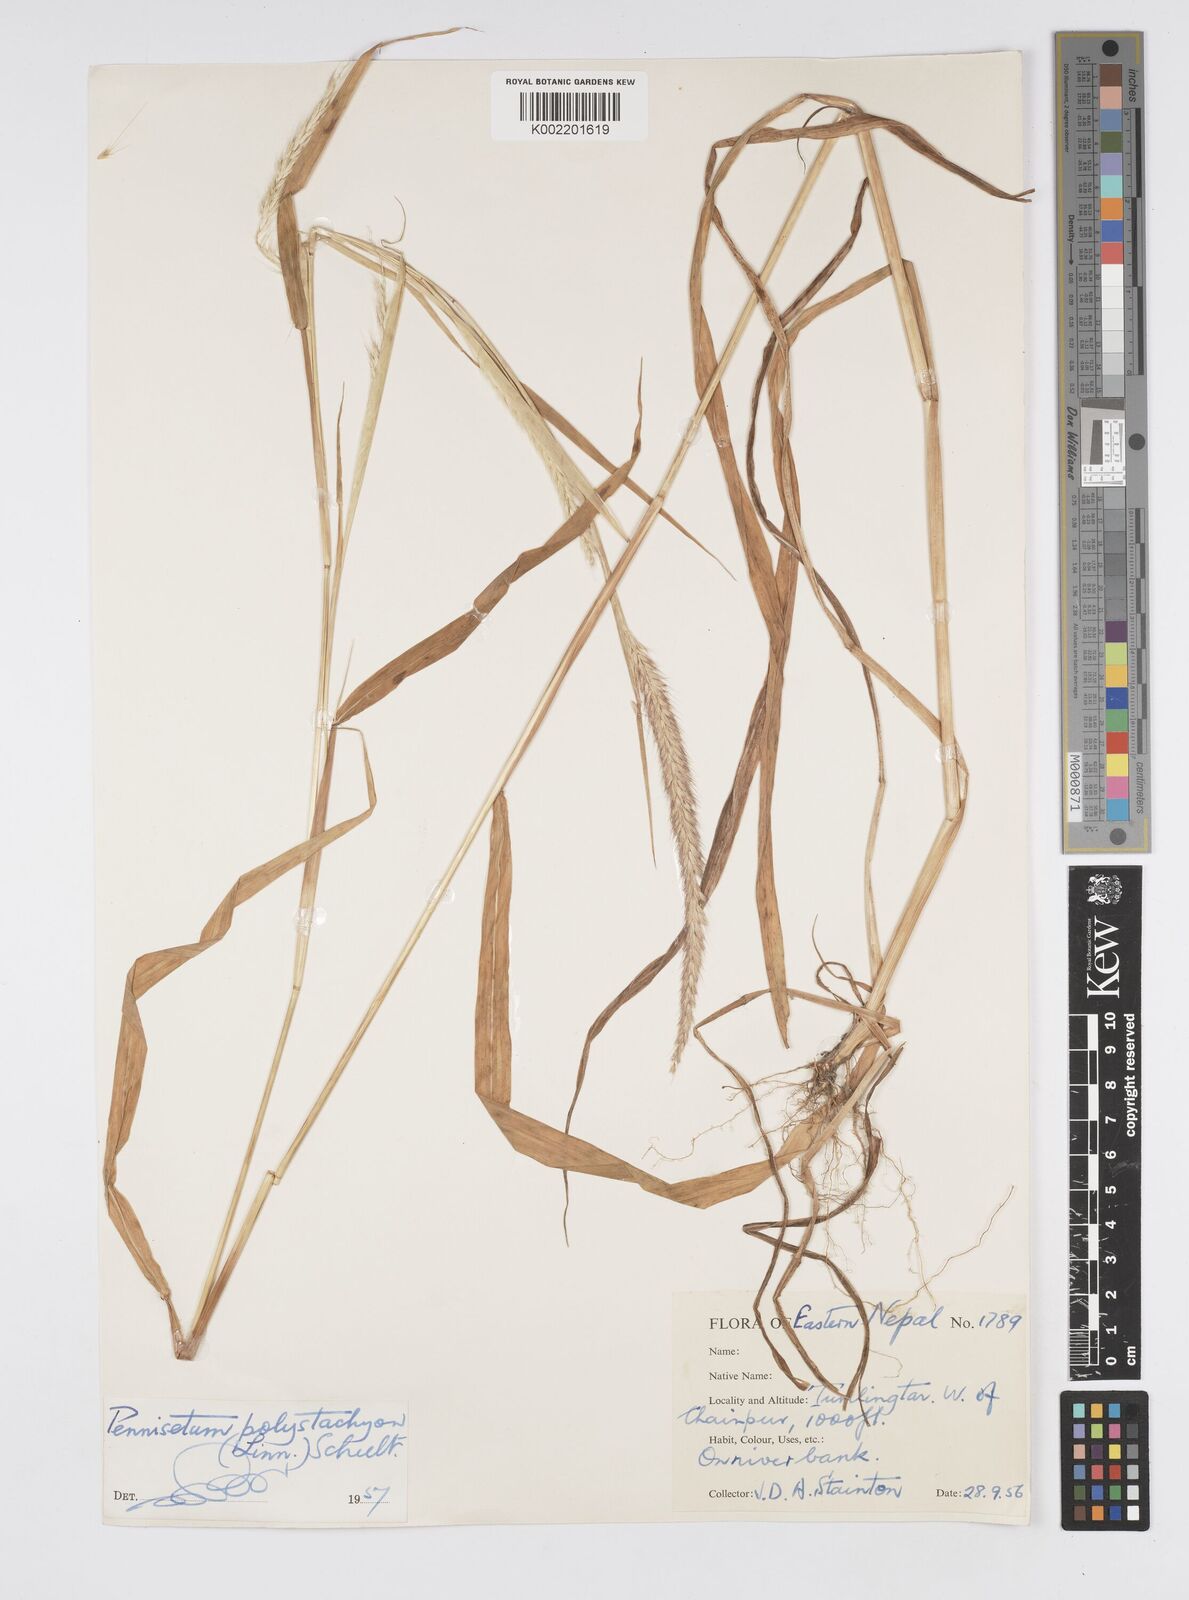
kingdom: Plantae
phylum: Tracheophyta
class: Liliopsida
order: Poales
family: Poaceae
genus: Setaria
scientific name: Setaria parviflora
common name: Knotroot bristle-grass
